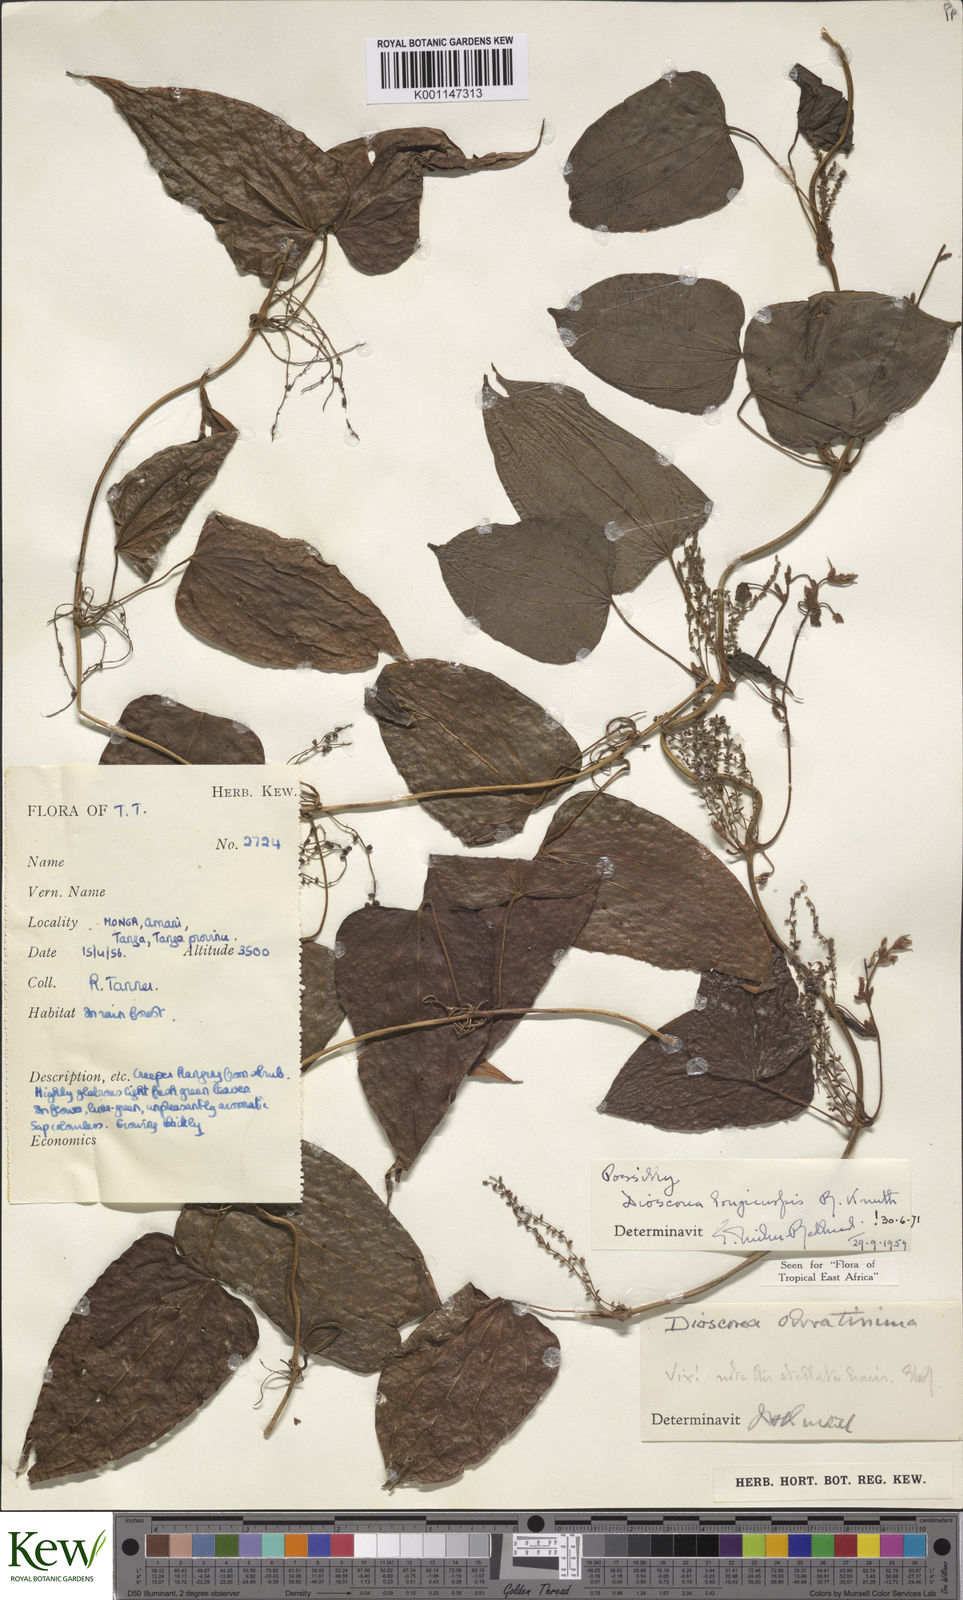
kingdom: Plantae
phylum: Tracheophyta
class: Liliopsida
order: Dioscoreales
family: Dioscoreaceae
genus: Dioscorea
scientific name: Dioscorea longicuspis
